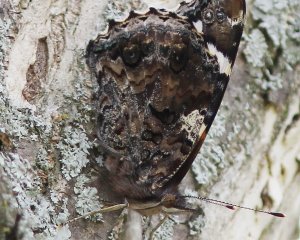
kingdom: Animalia
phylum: Arthropoda
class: Insecta
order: Lepidoptera
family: Nymphalidae
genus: Vanessa
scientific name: Vanessa atalanta
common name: Red Admiral
